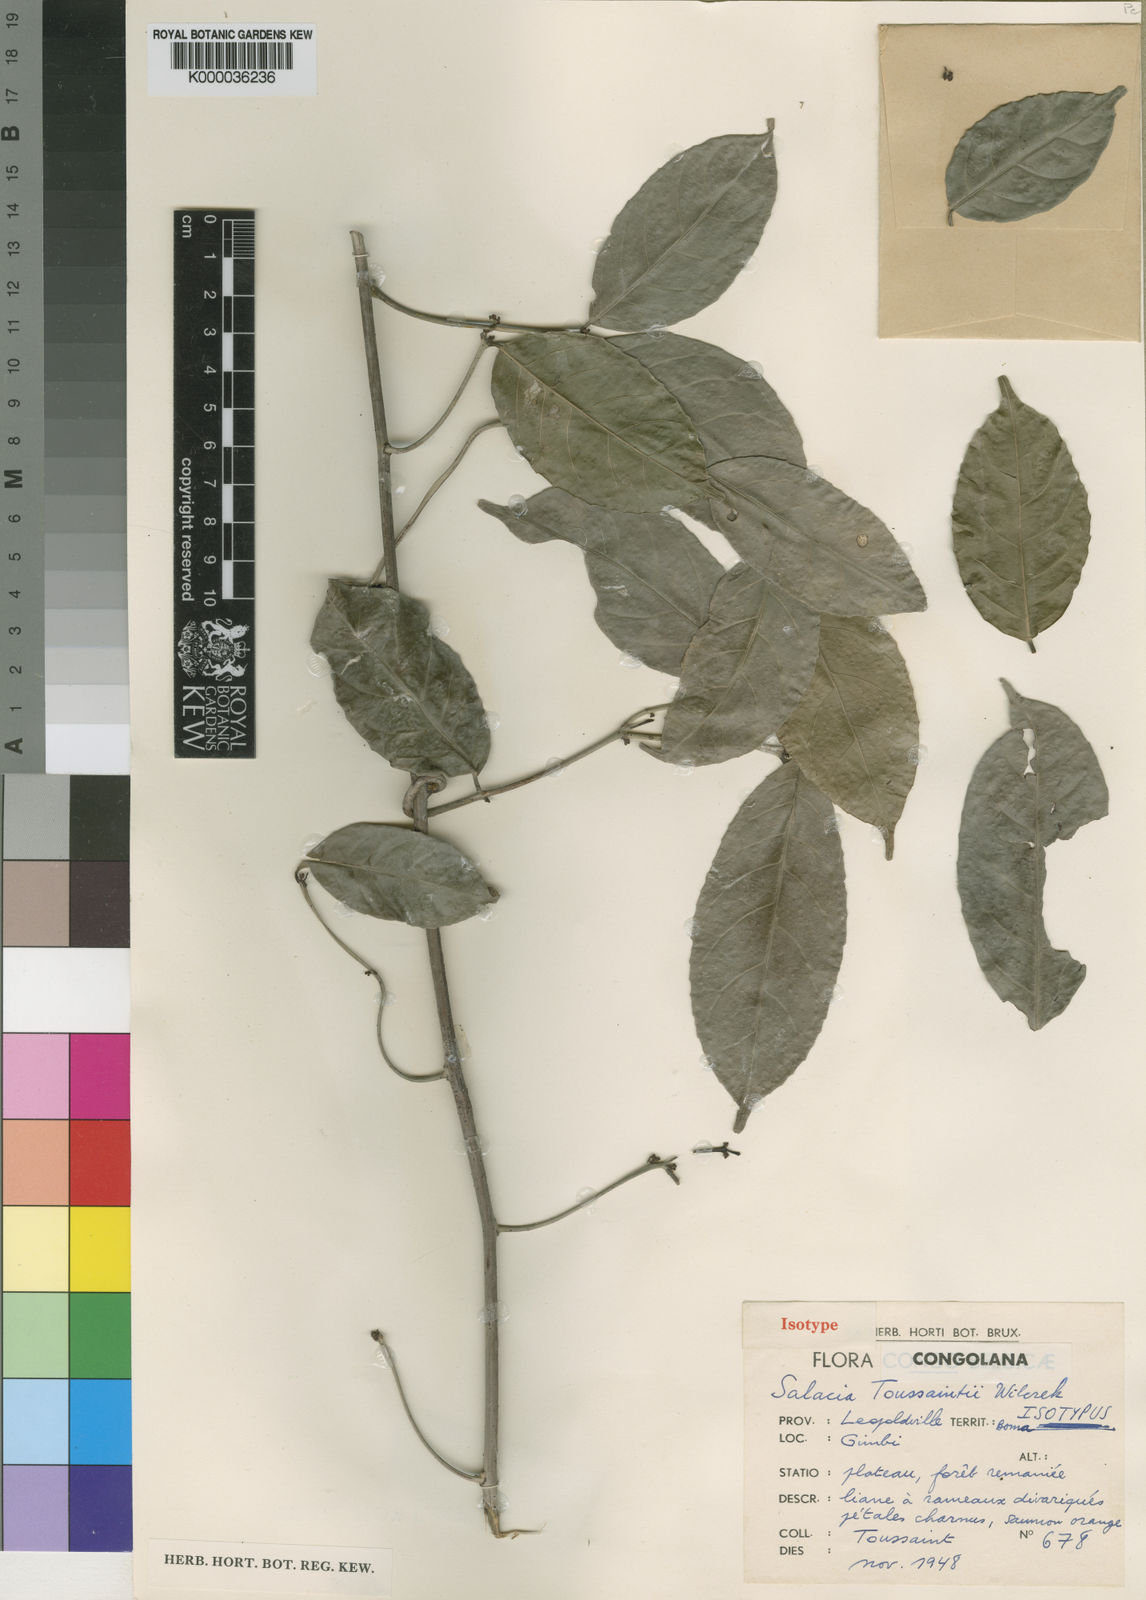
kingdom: Plantae
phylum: Tracheophyta
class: Magnoliopsida
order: Celastrales
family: Celastraceae
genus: Salacia
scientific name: Salacia whytei
